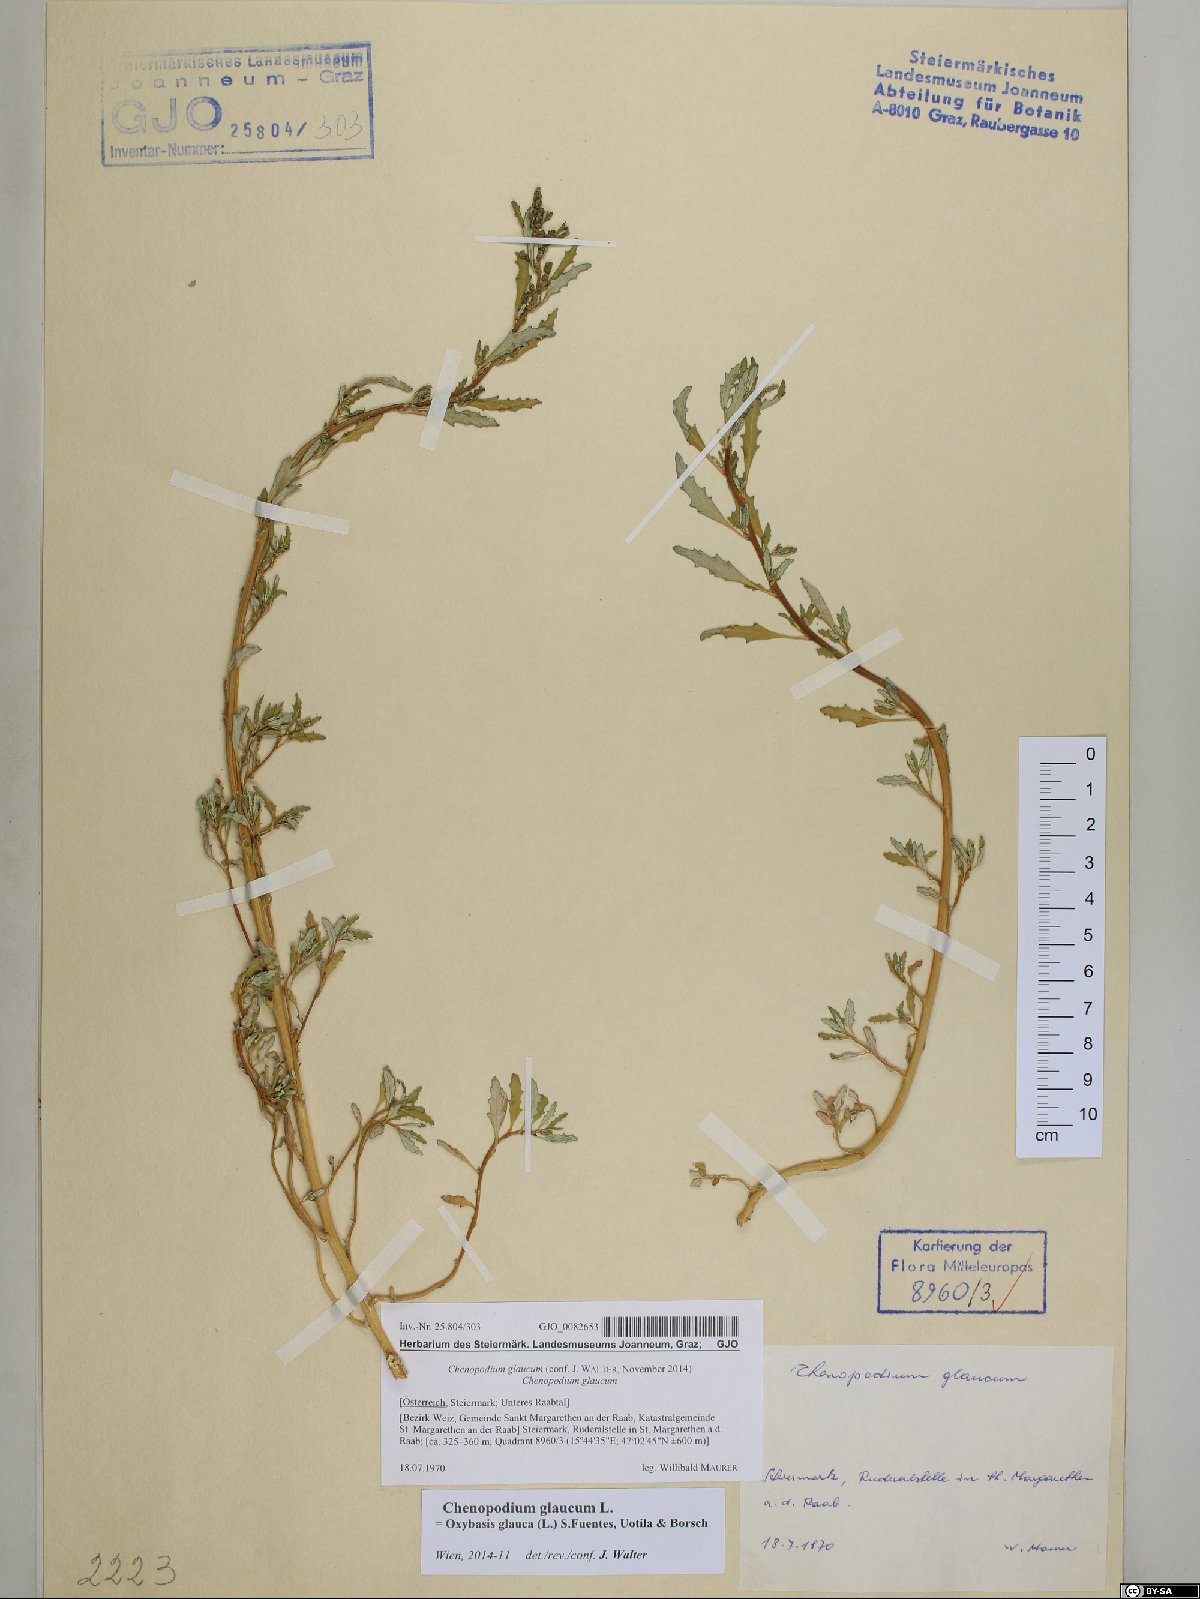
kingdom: Plantae
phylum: Tracheophyta
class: Magnoliopsida
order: Caryophyllales
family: Amaranthaceae
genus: Oxybasis
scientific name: Oxybasis glauca
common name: Glaucous goosefoot
